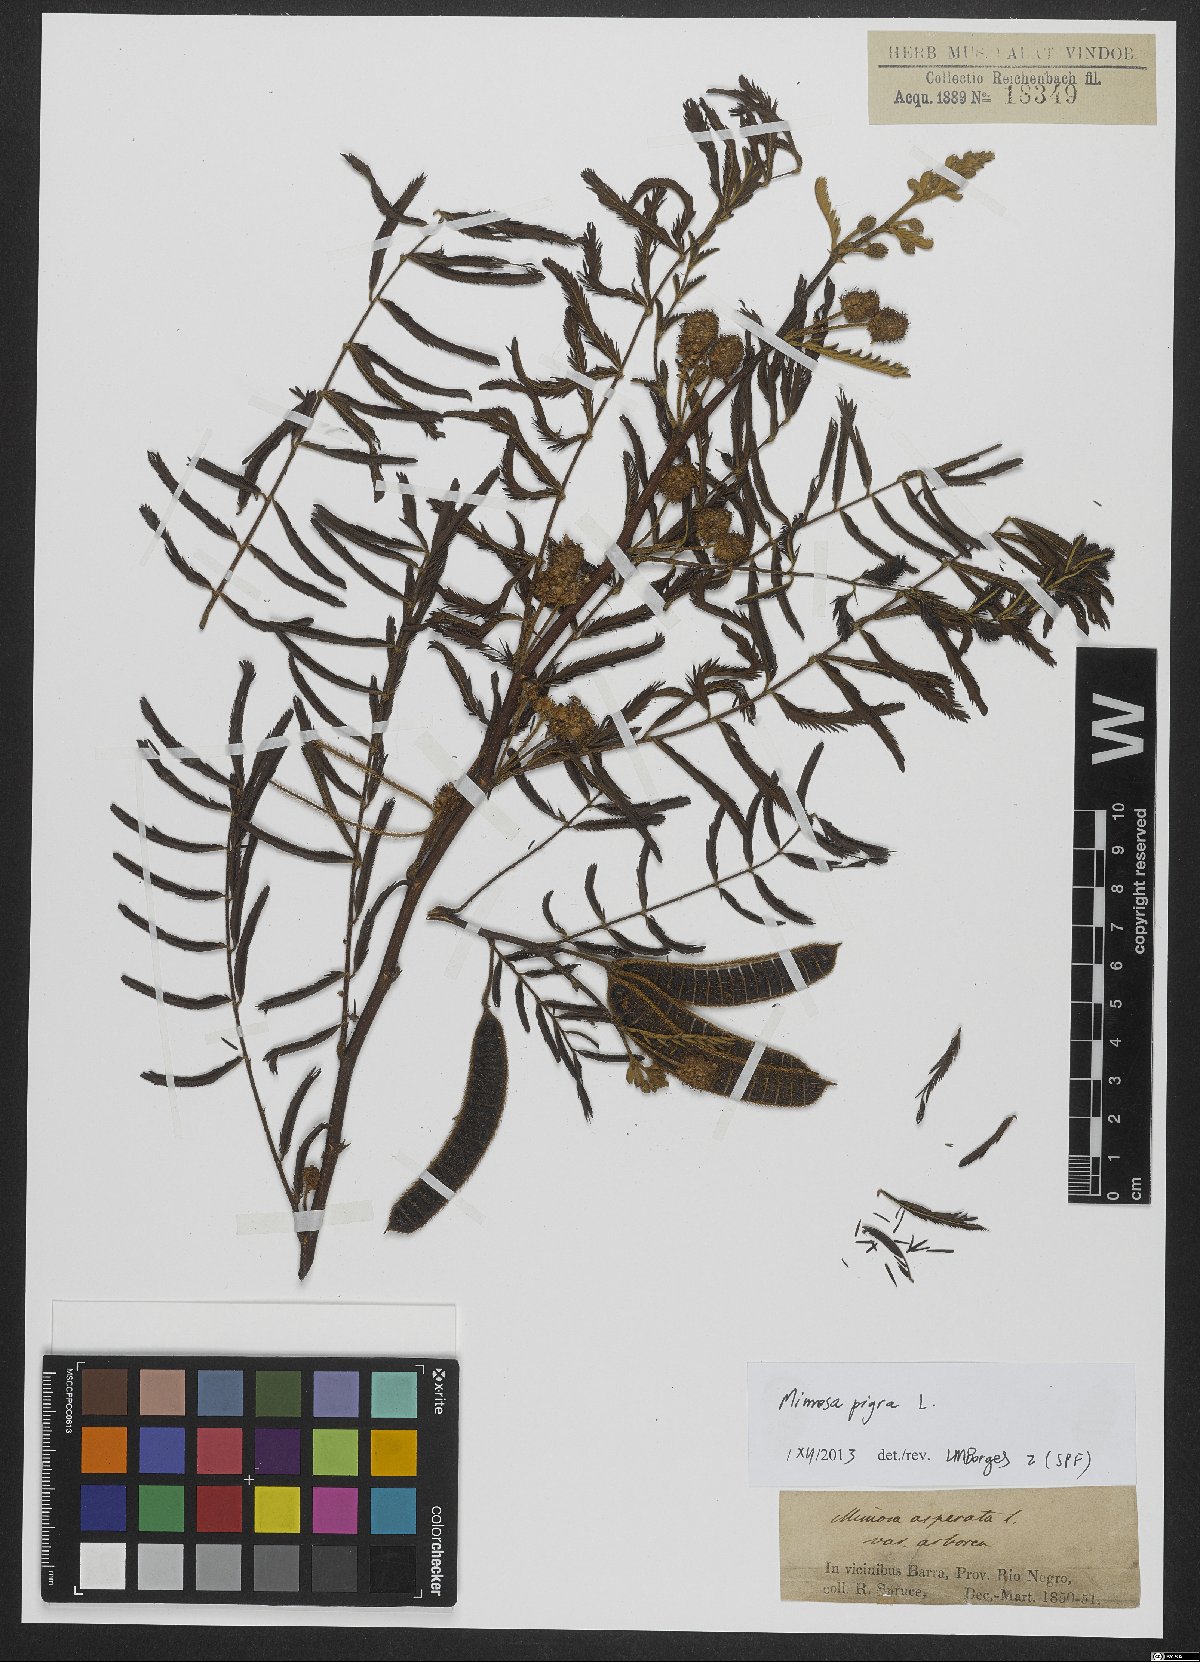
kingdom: Plantae
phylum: Tracheophyta
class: Magnoliopsida
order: Fabales
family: Fabaceae
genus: Mimosa
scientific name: Mimosa pigra
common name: Black mimosa
